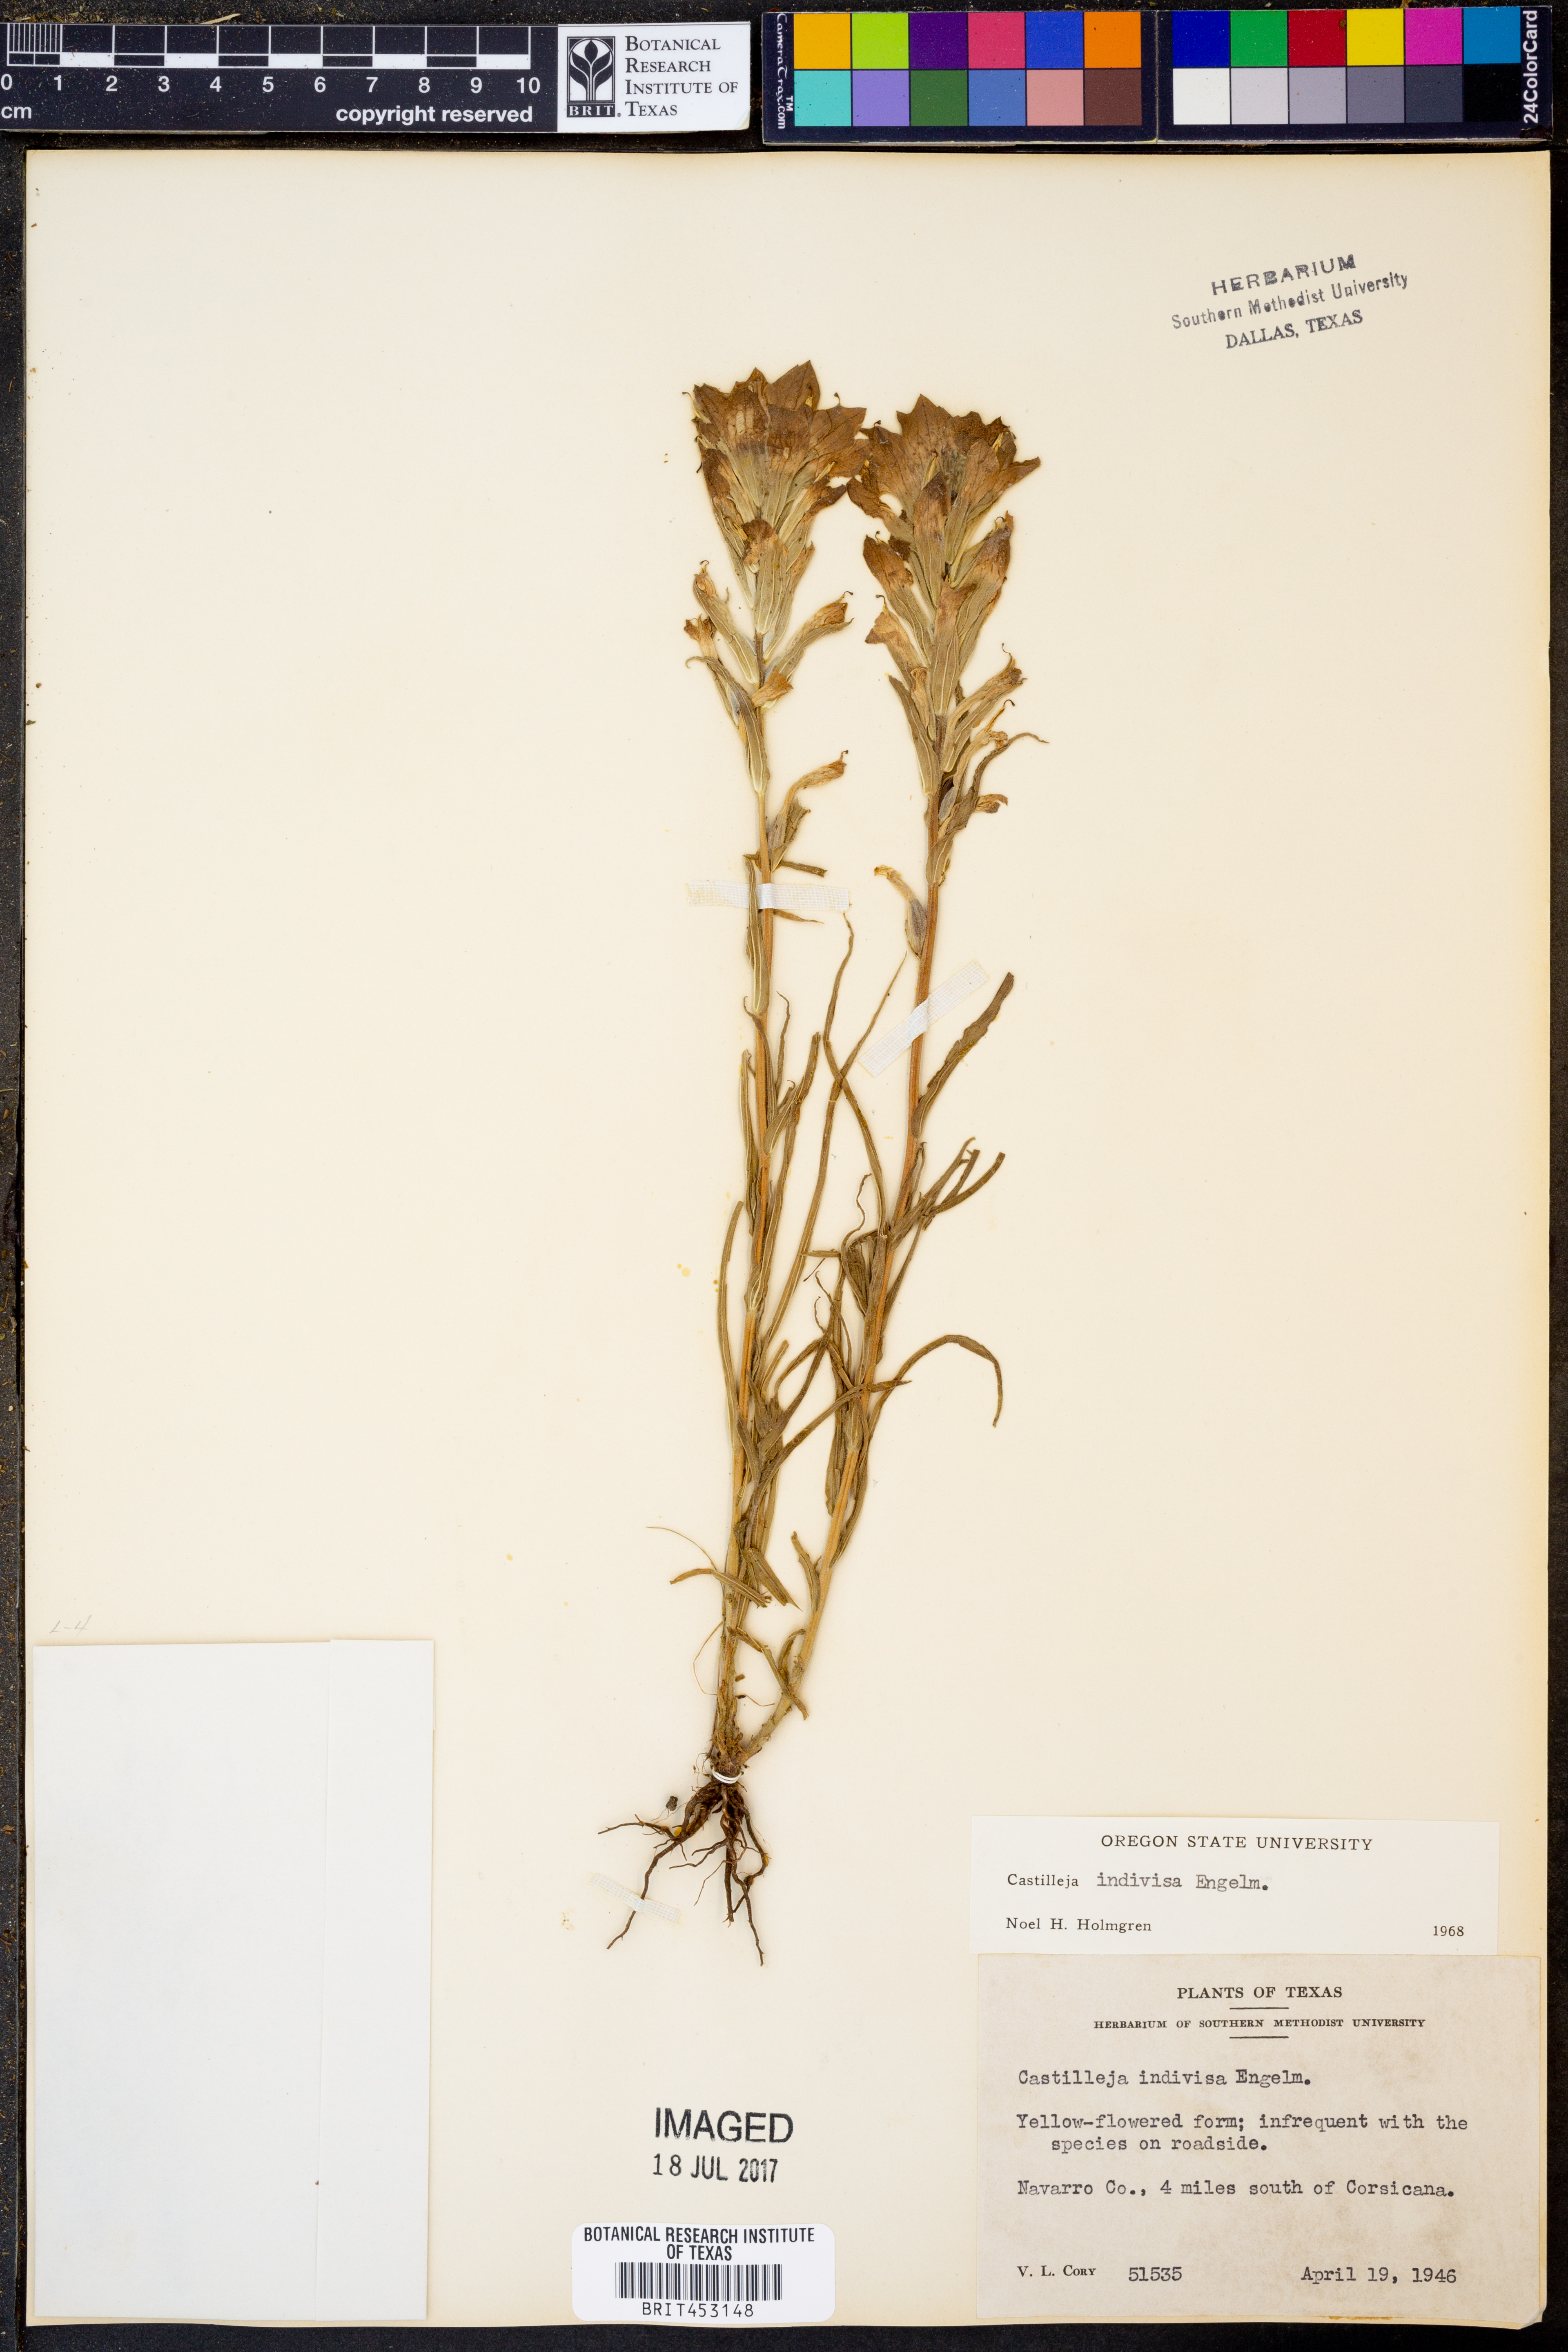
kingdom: Plantae
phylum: Tracheophyta
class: Magnoliopsida
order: Lamiales
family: Orobanchaceae
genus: Castilleja
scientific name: Castilleja indivisa
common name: Texas paintbrush
